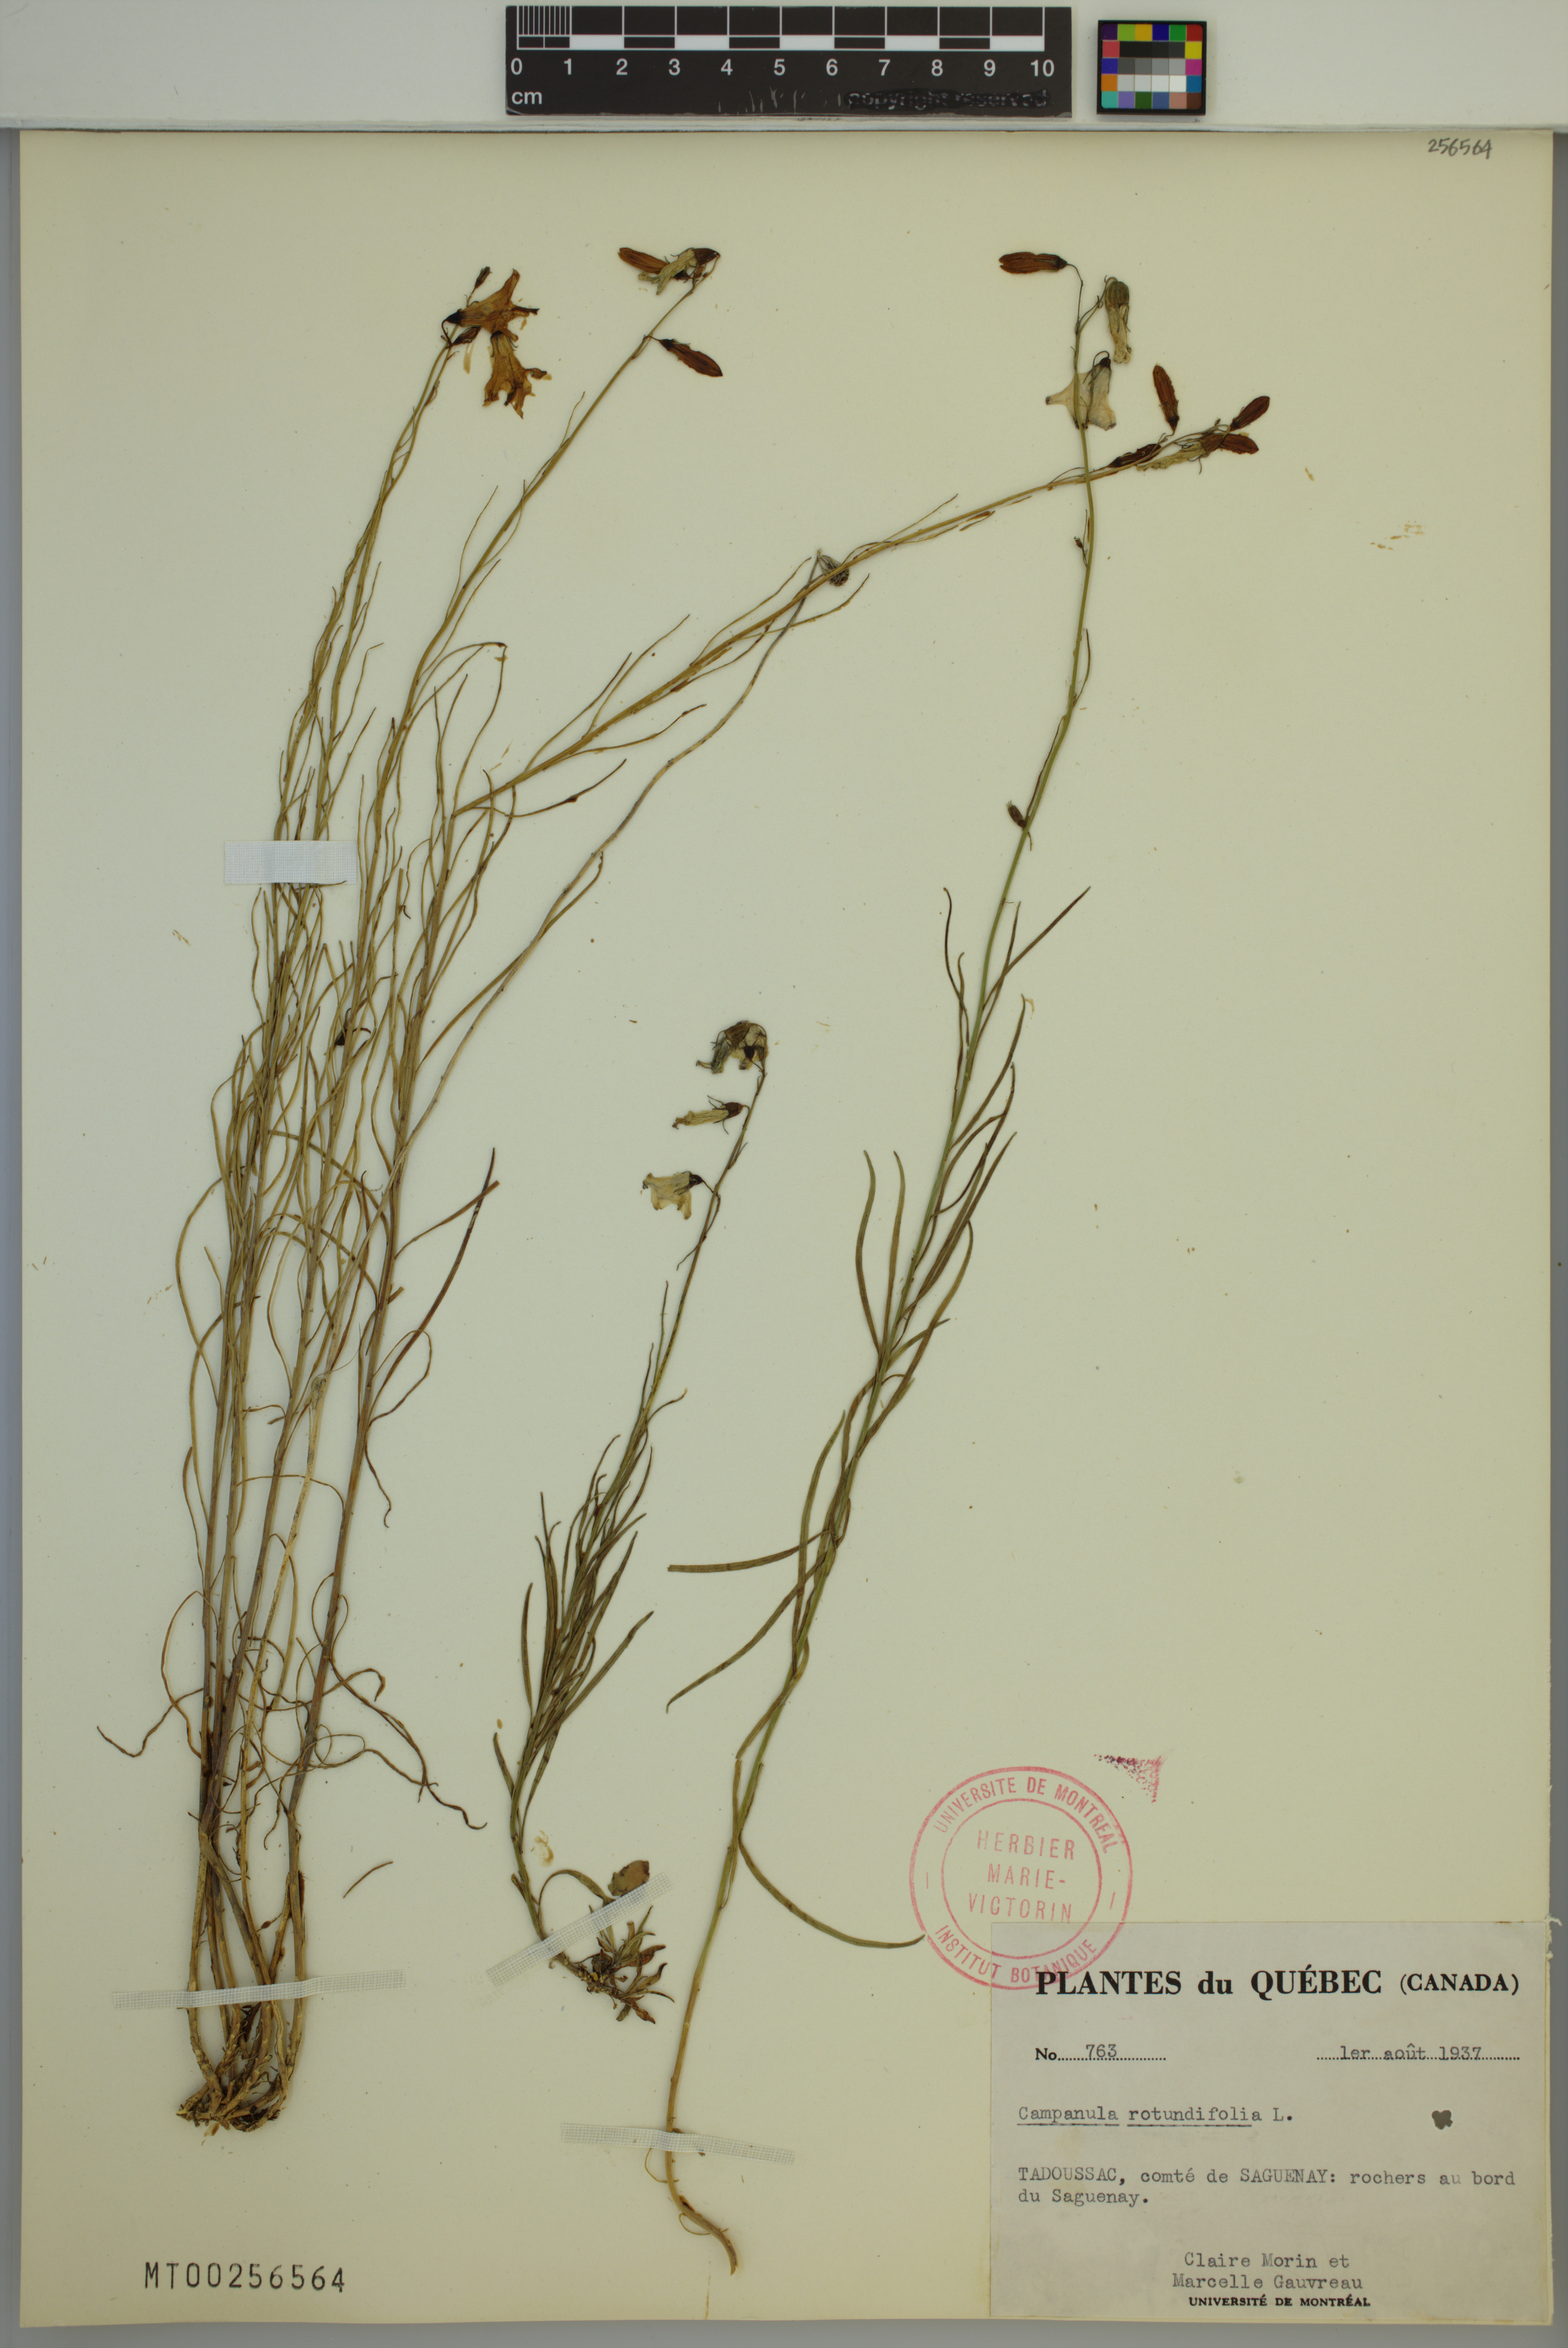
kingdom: Plantae
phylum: Tracheophyta
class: Magnoliopsida
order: Asterales
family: Campanulaceae
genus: Campanula
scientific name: Campanula rotundifolia
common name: Harebell
